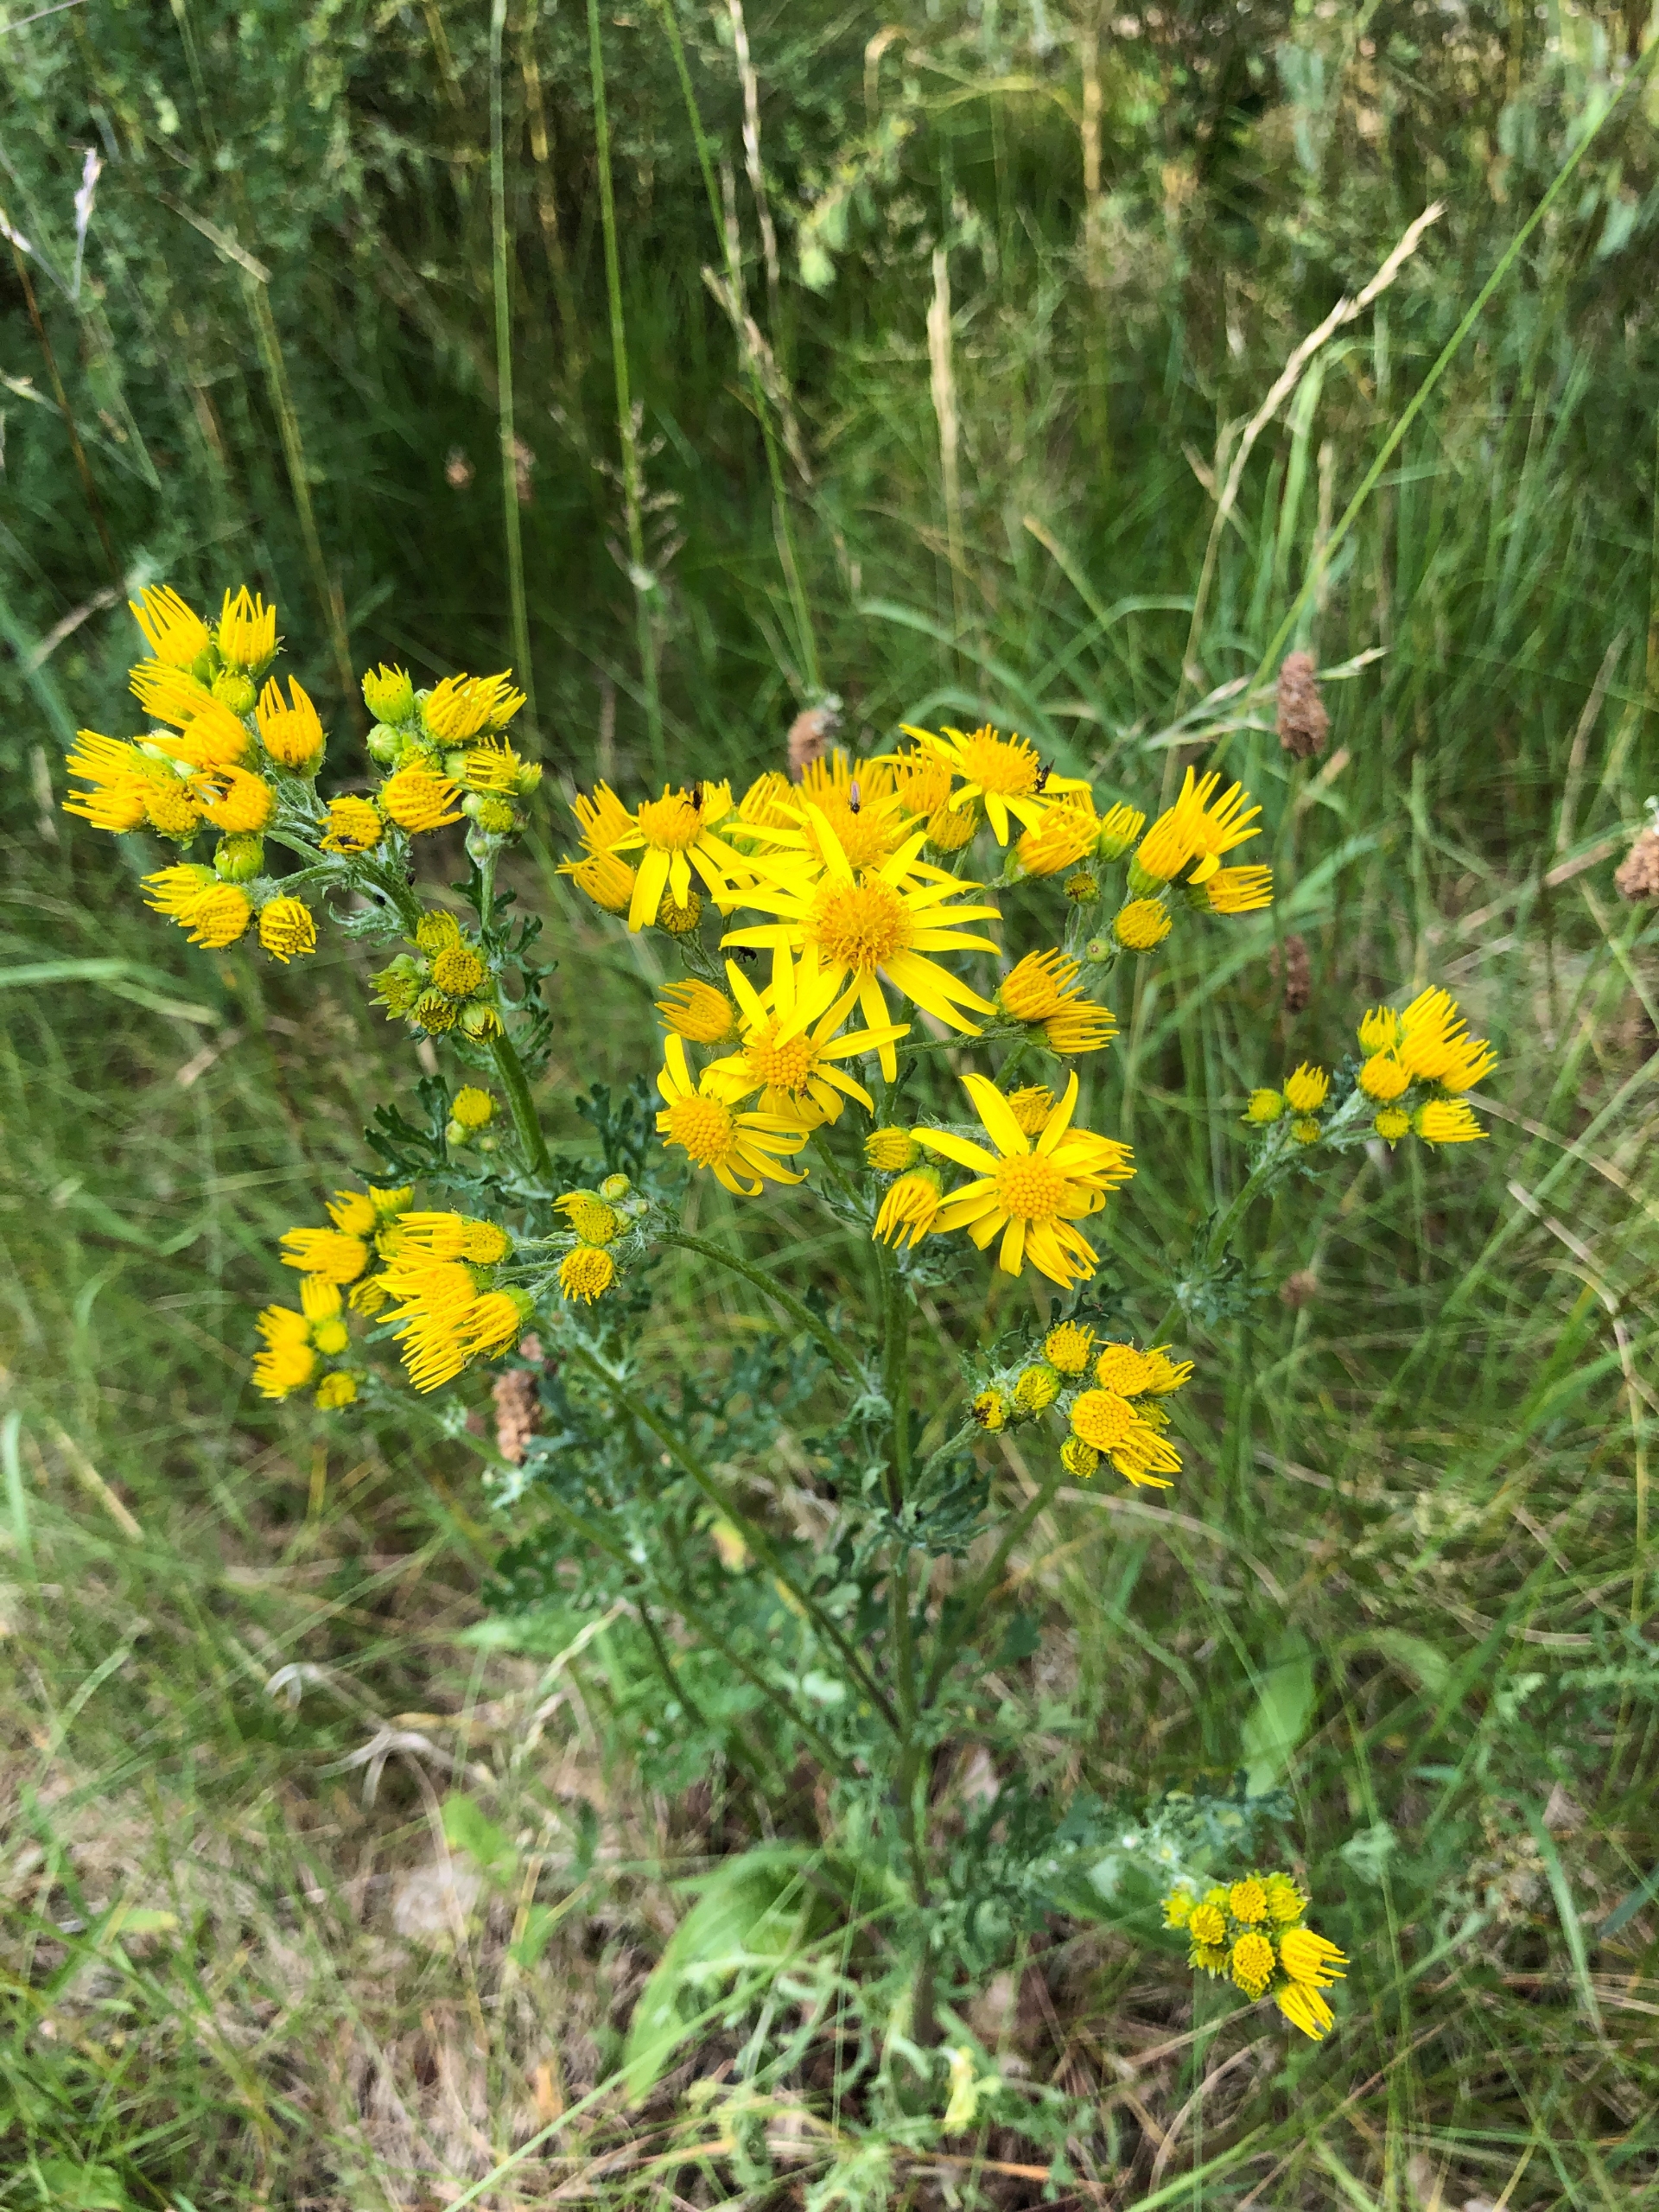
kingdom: Plantae
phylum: Tracheophyta
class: Magnoliopsida
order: Asterales
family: Asteraceae
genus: Jacobaea
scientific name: Jacobaea vulgaris
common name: Eng-brandbæger
